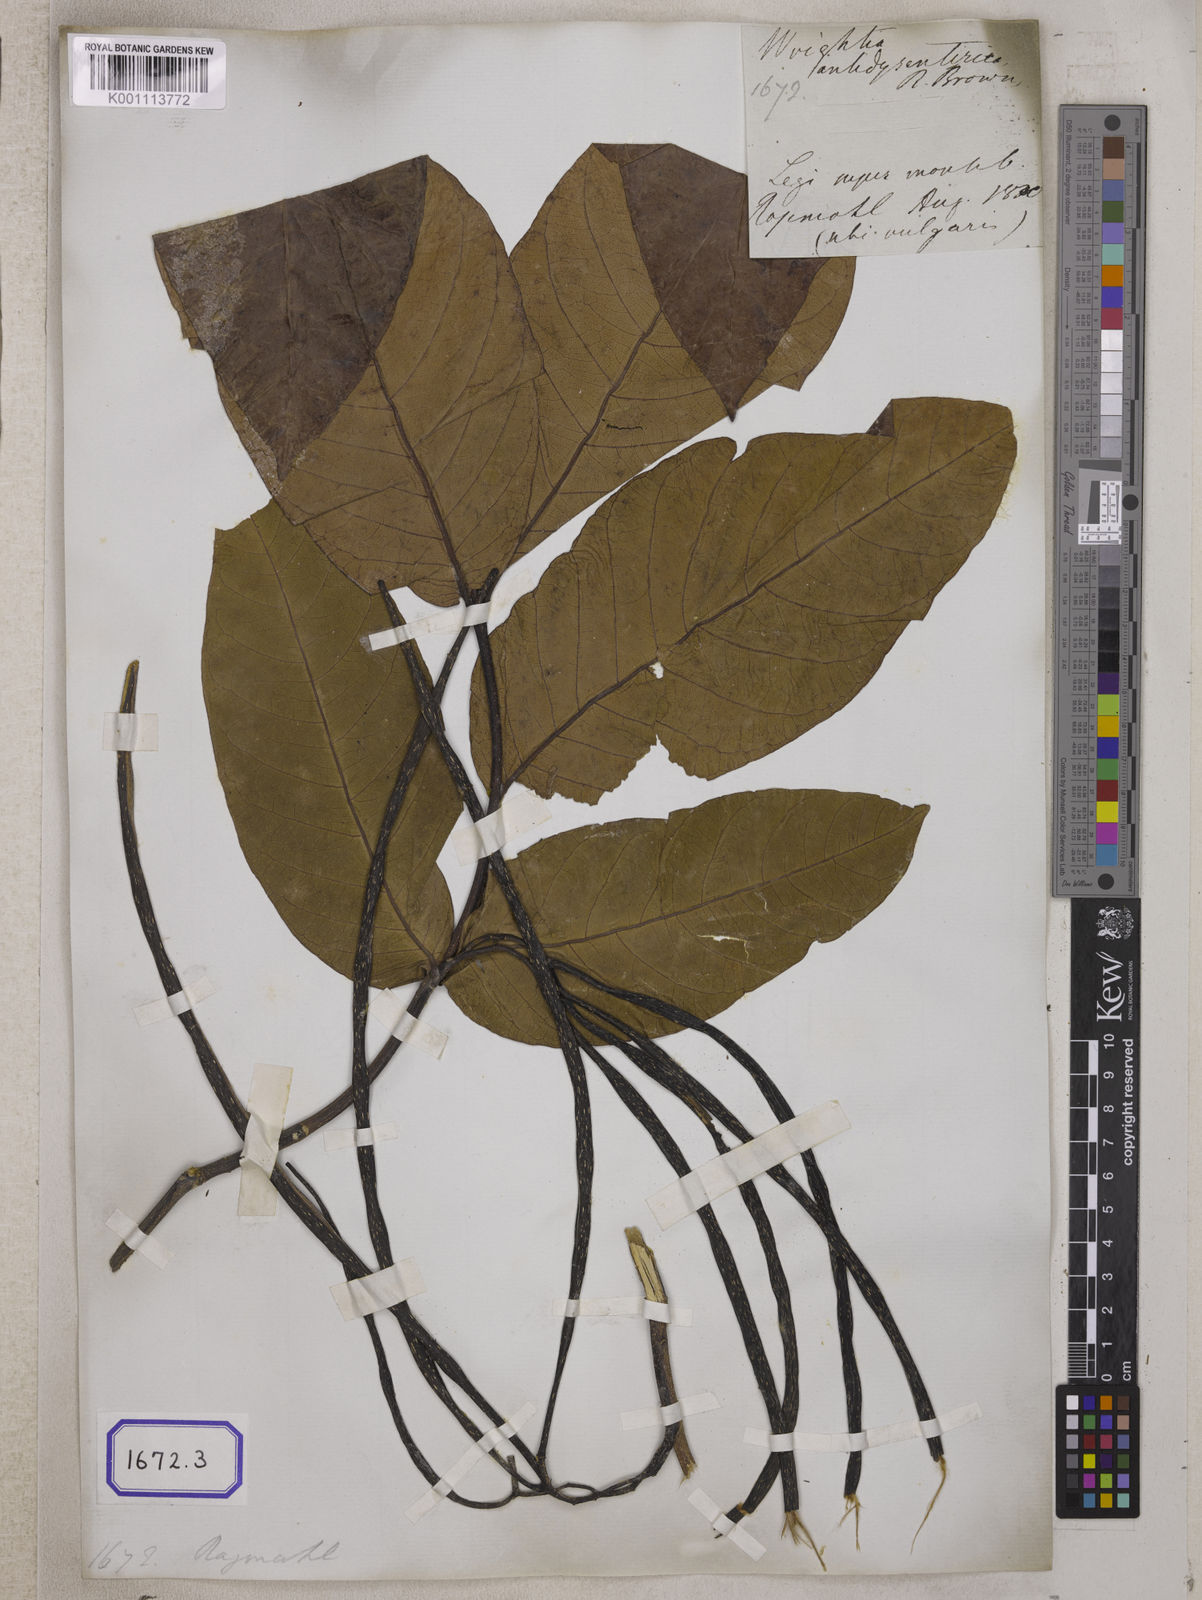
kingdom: Plantae
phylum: Tracheophyta
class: Magnoliopsida
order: Gentianales
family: Apocynaceae
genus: Holarrhena
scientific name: Holarrhena pubescens
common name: Bitter oleander
